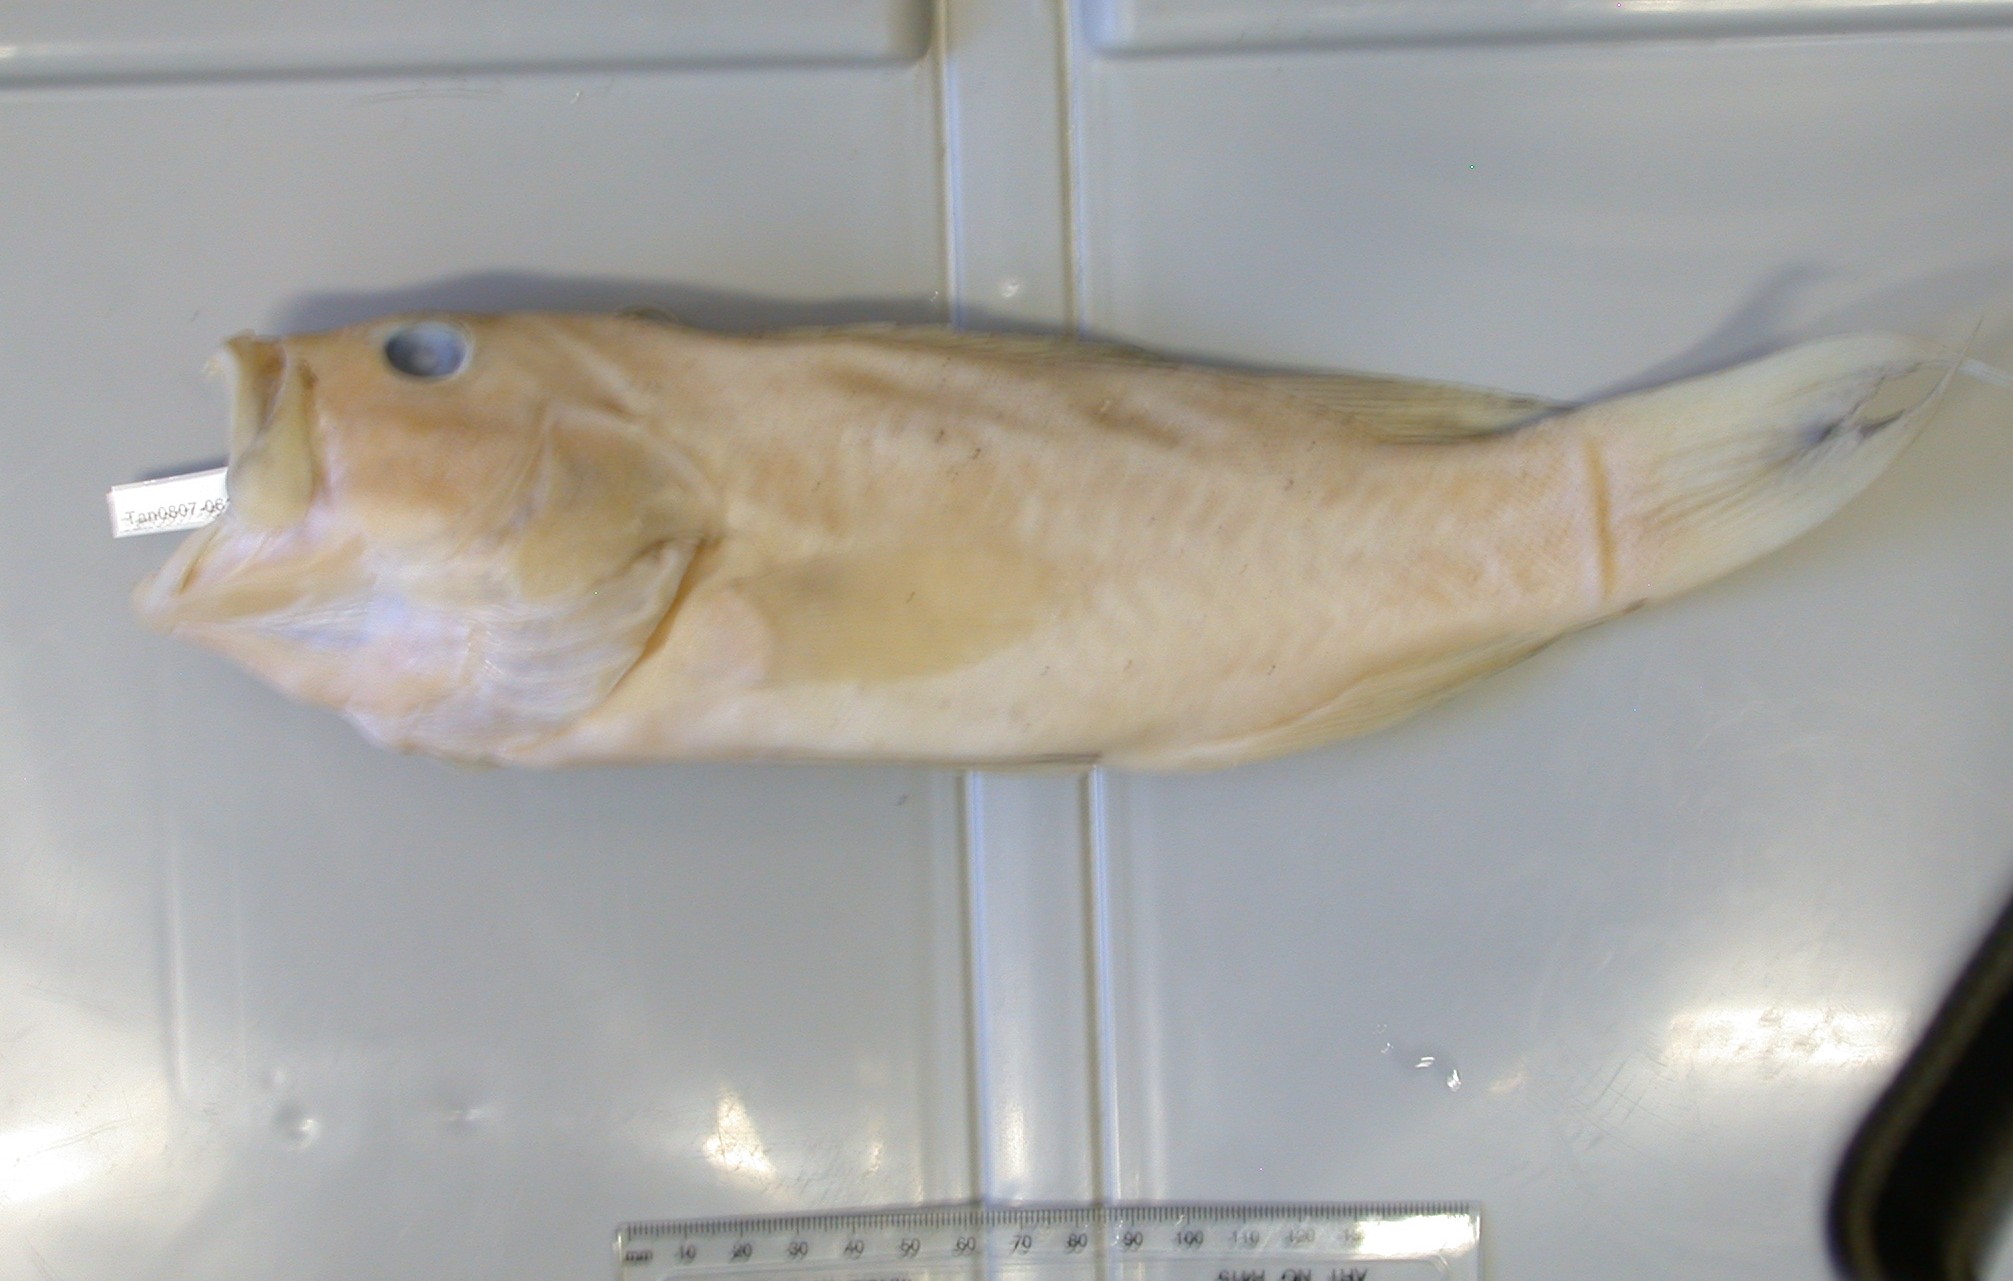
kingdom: Animalia
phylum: Chordata
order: Perciformes
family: Serranidae
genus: Cephalopholis
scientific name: Cephalopholis aurantia
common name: Golden hind
